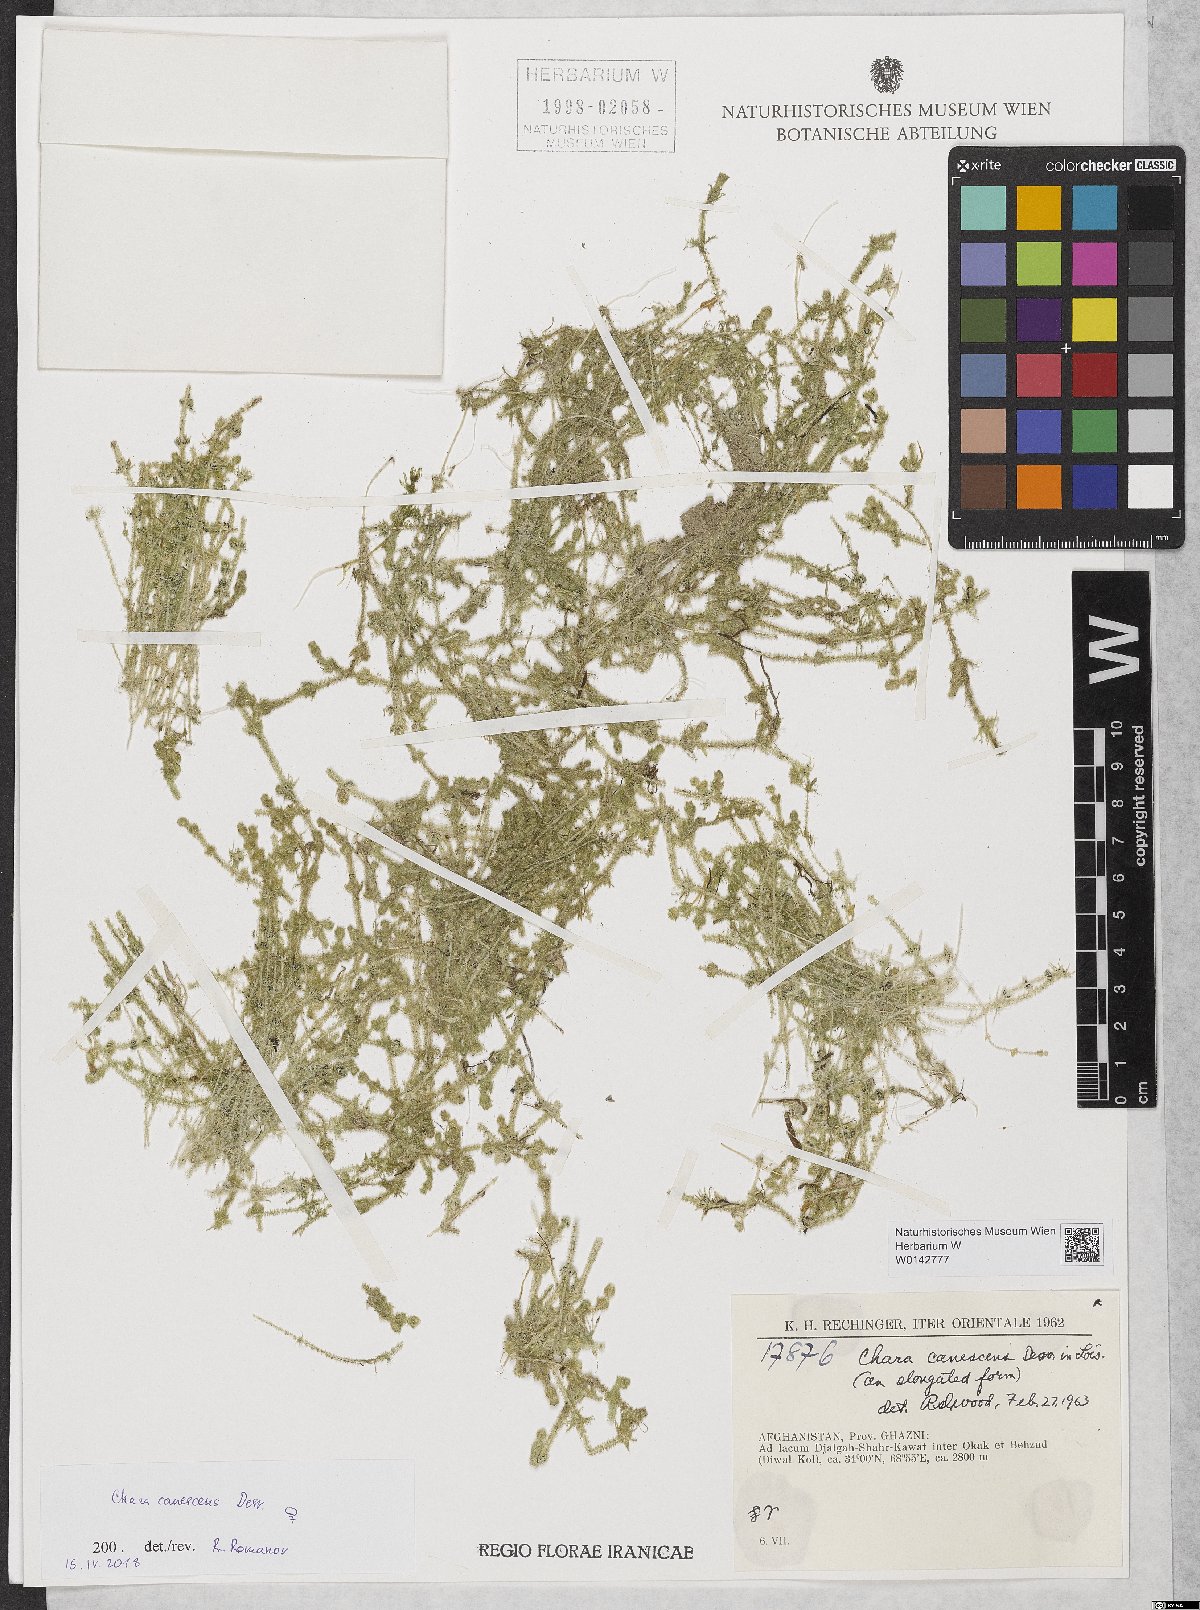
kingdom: Plantae
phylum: Charophyta
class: Charophyceae
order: Charales
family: Characeae
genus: Chara
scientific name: Chara canescens
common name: Bearded stonewort
